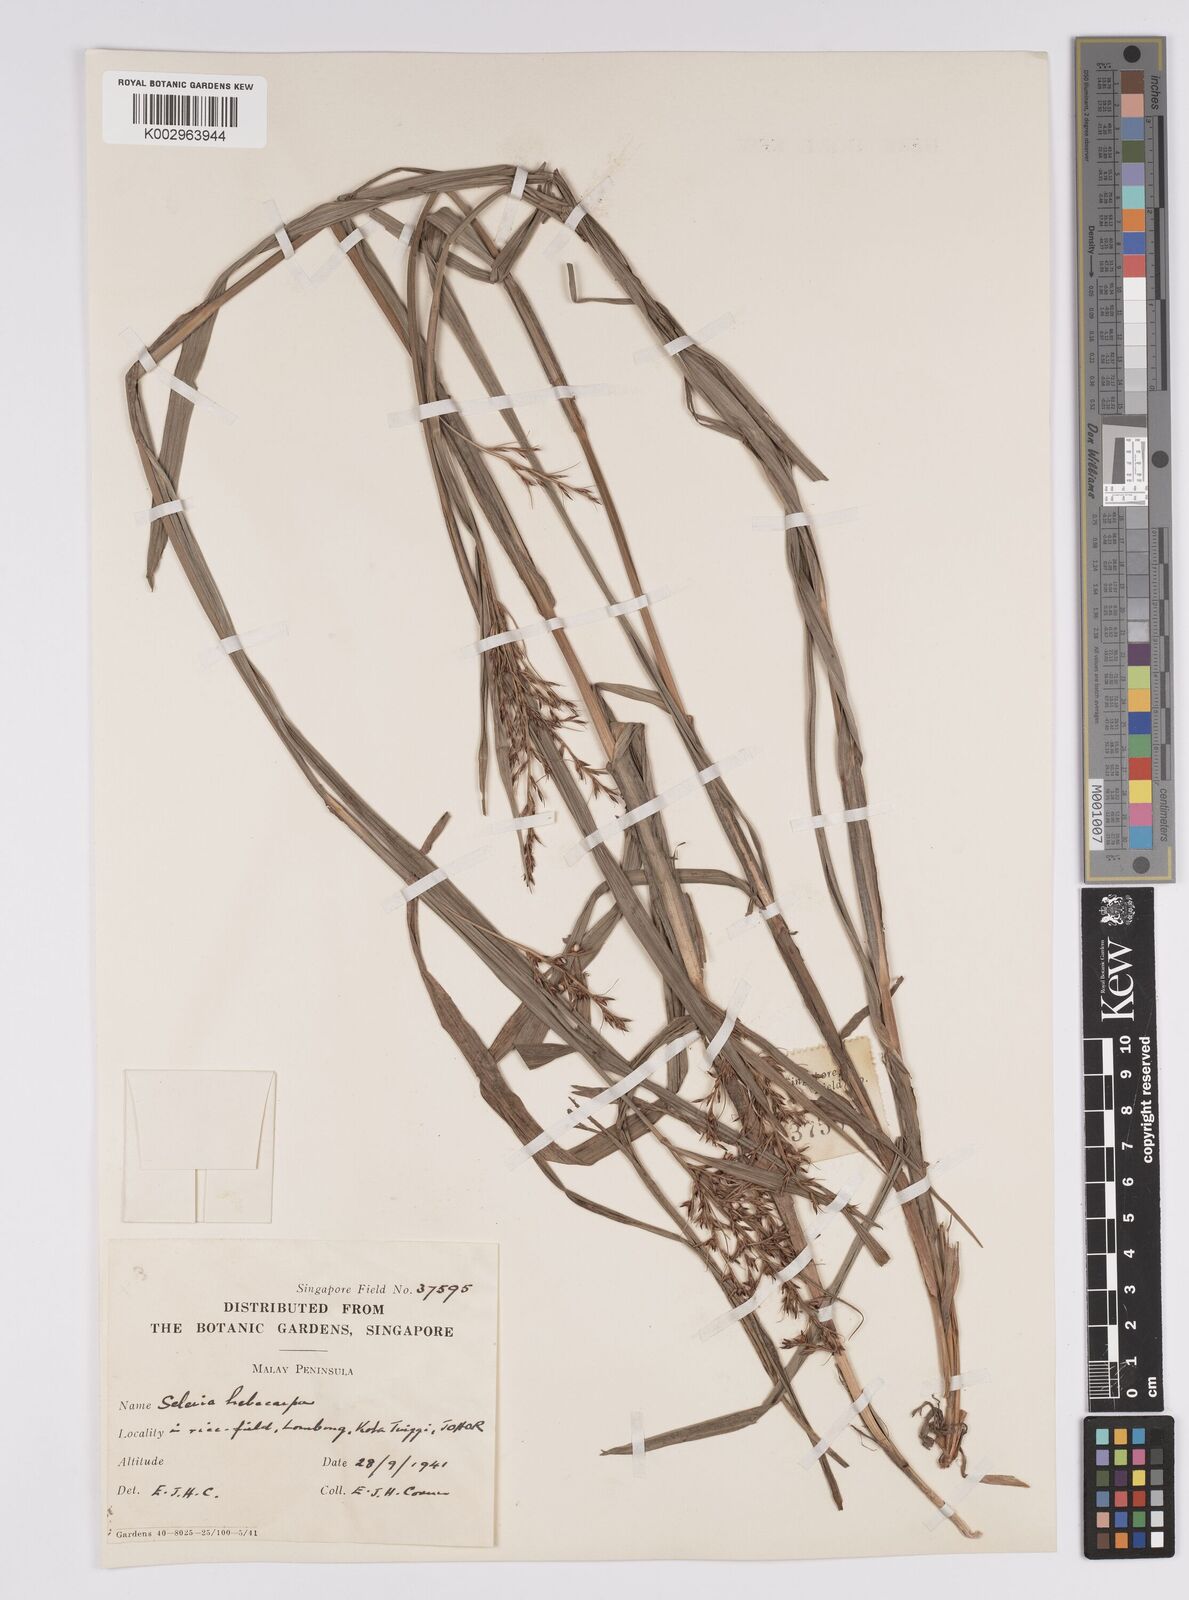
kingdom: Plantae
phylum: Tracheophyta
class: Liliopsida
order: Poales
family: Cyperaceae
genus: Scleria
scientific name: Scleria levis
